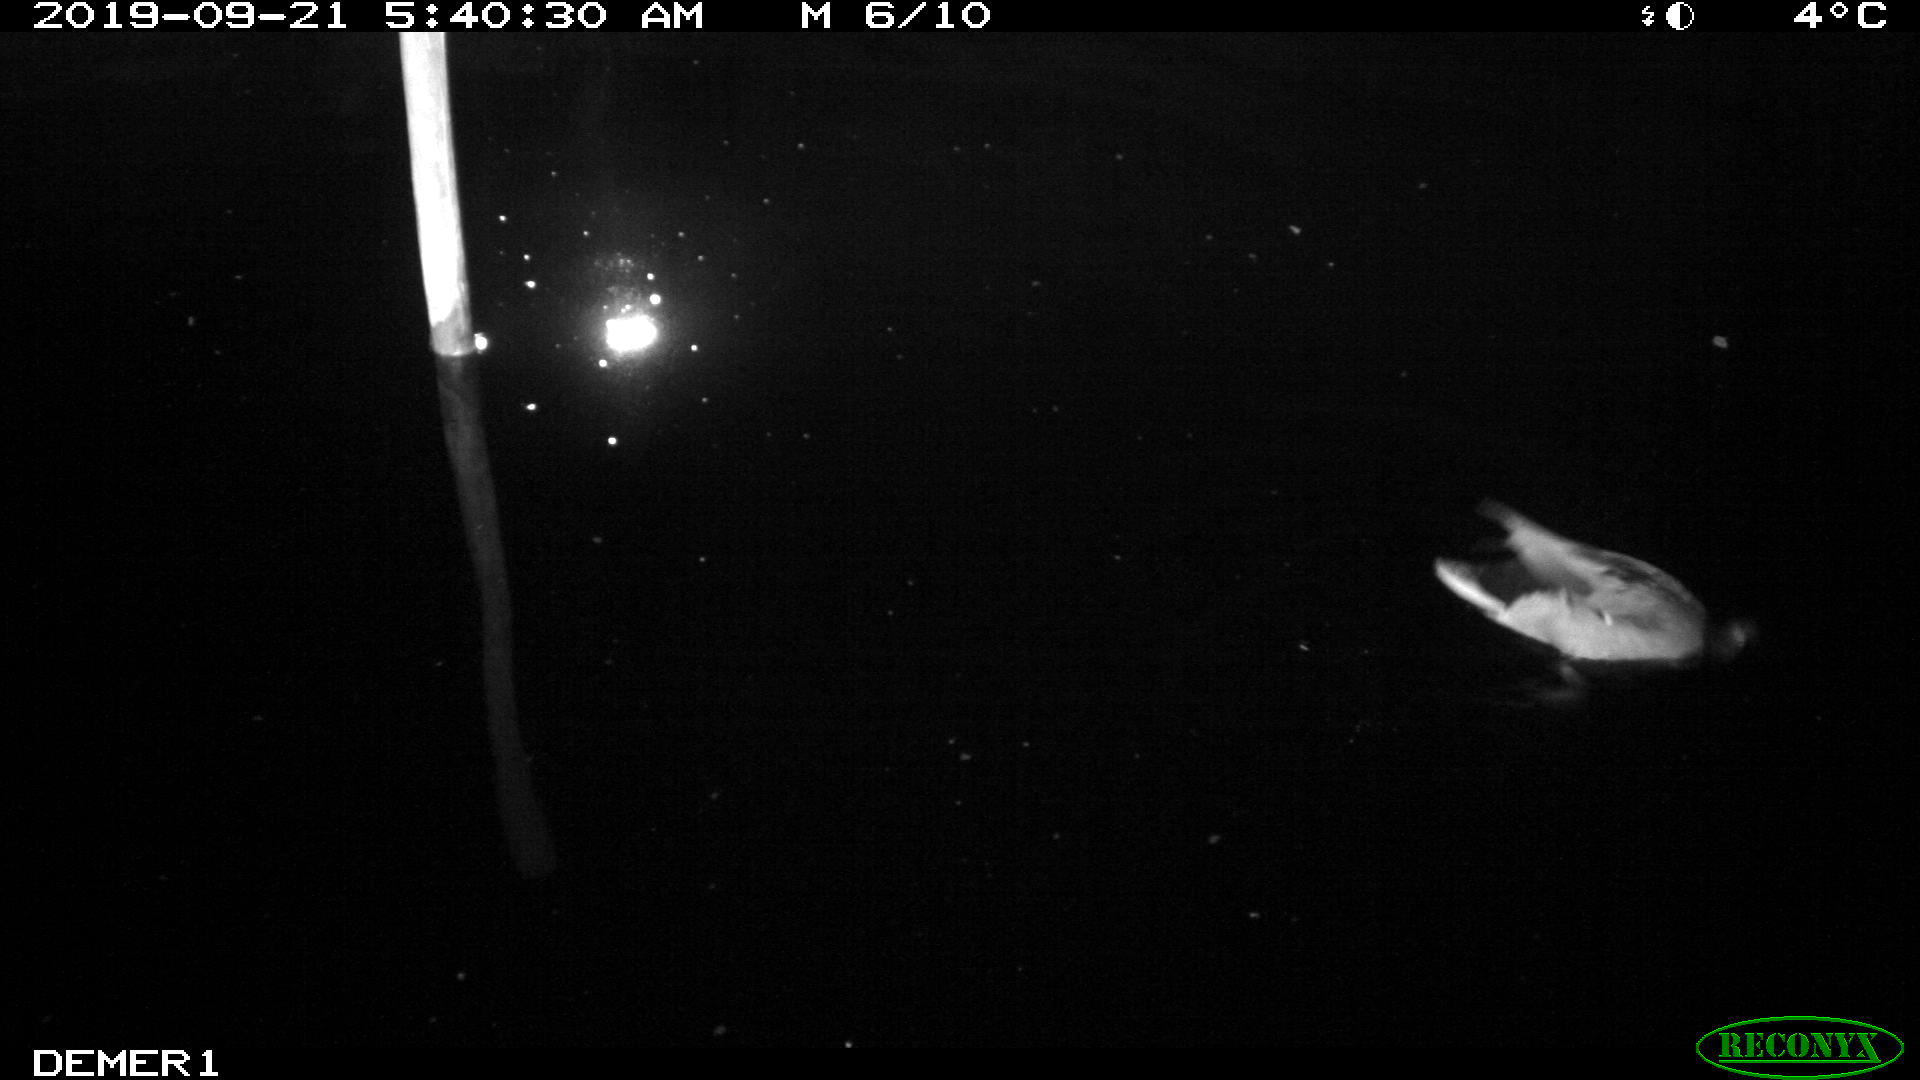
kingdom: Animalia
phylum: Chordata
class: Aves
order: Anseriformes
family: Anatidae
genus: Anas
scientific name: Anas platyrhynchos
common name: Mallard
